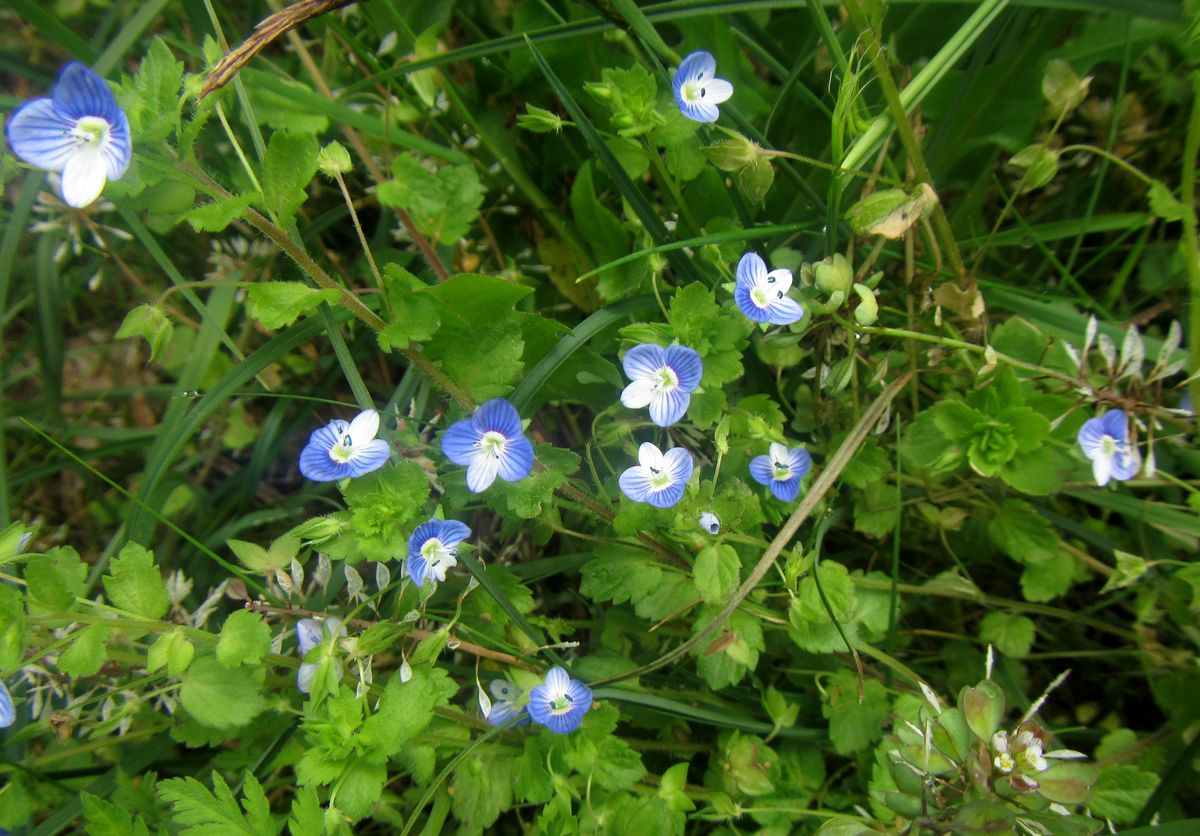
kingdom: Plantae
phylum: Tracheophyta
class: Magnoliopsida
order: Lamiales
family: Plantaginaceae
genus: Veronica
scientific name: Veronica
